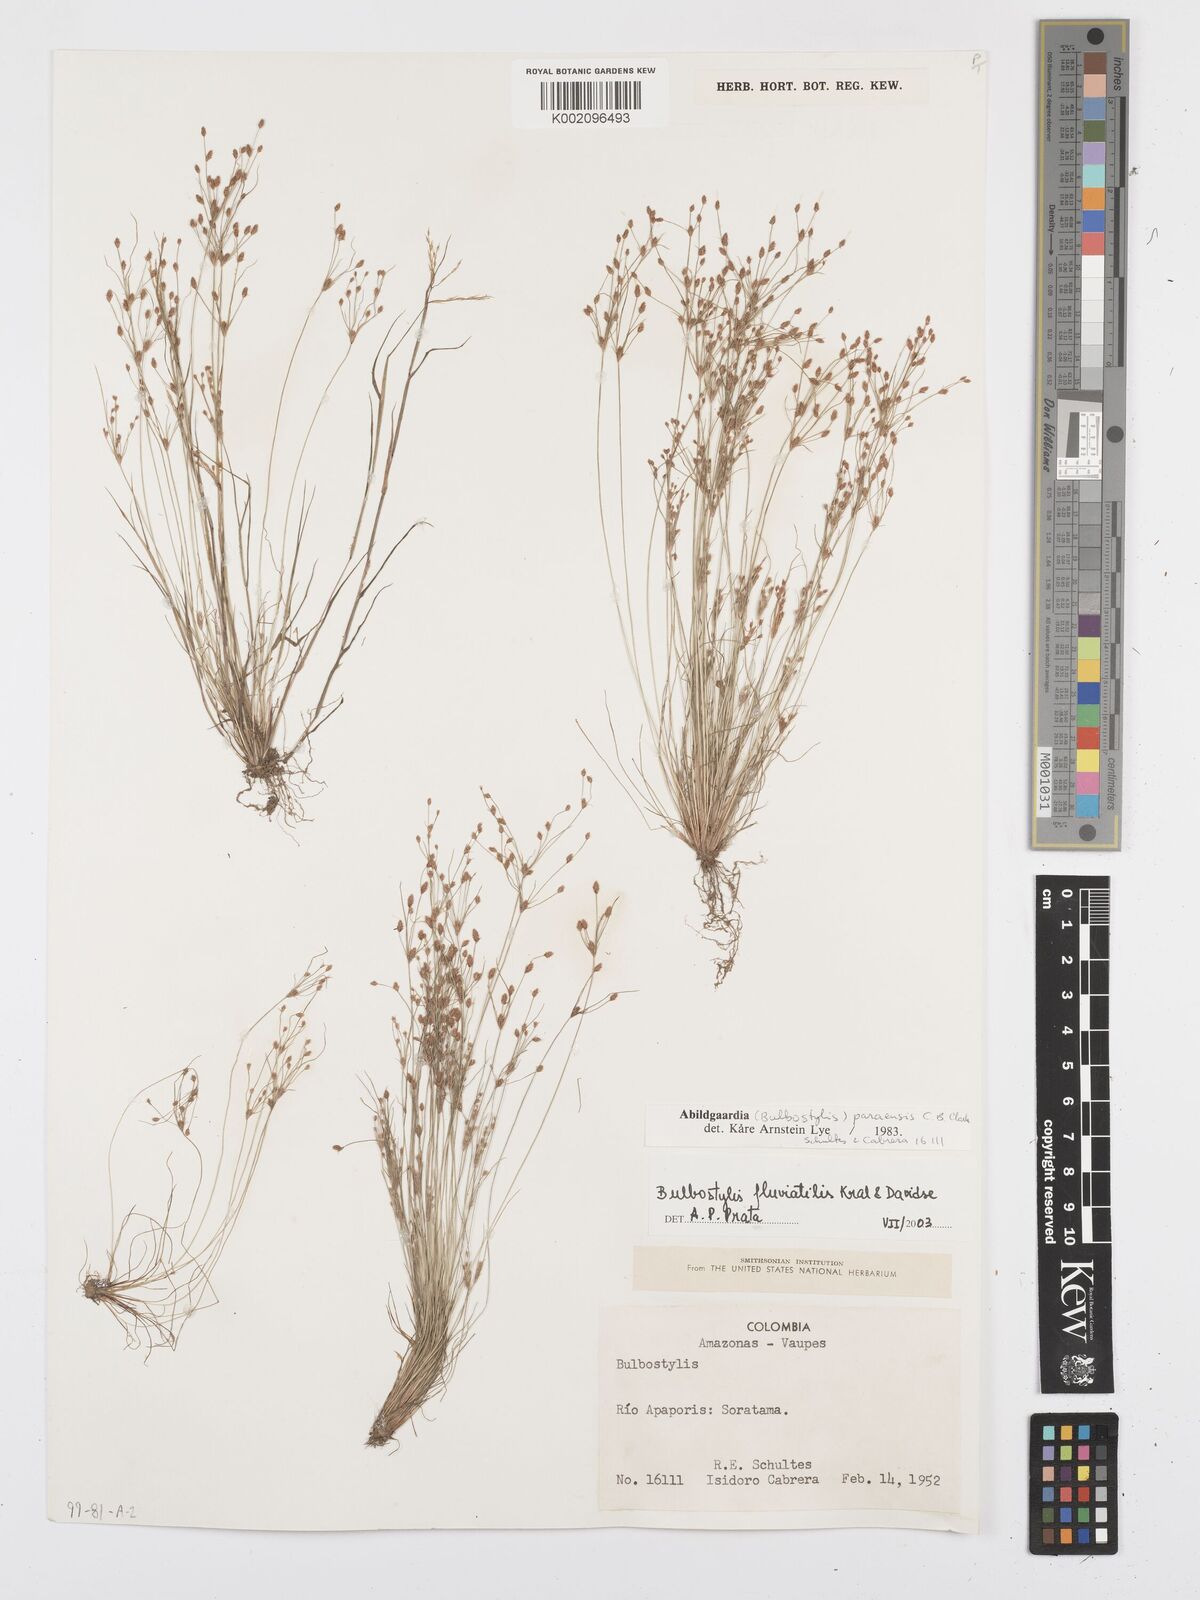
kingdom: Plantae
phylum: Tracheophyta
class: Liliopsida
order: Poales
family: Cyperaceae
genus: Bulbostylis
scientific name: Bulbostylis fluviatilis
